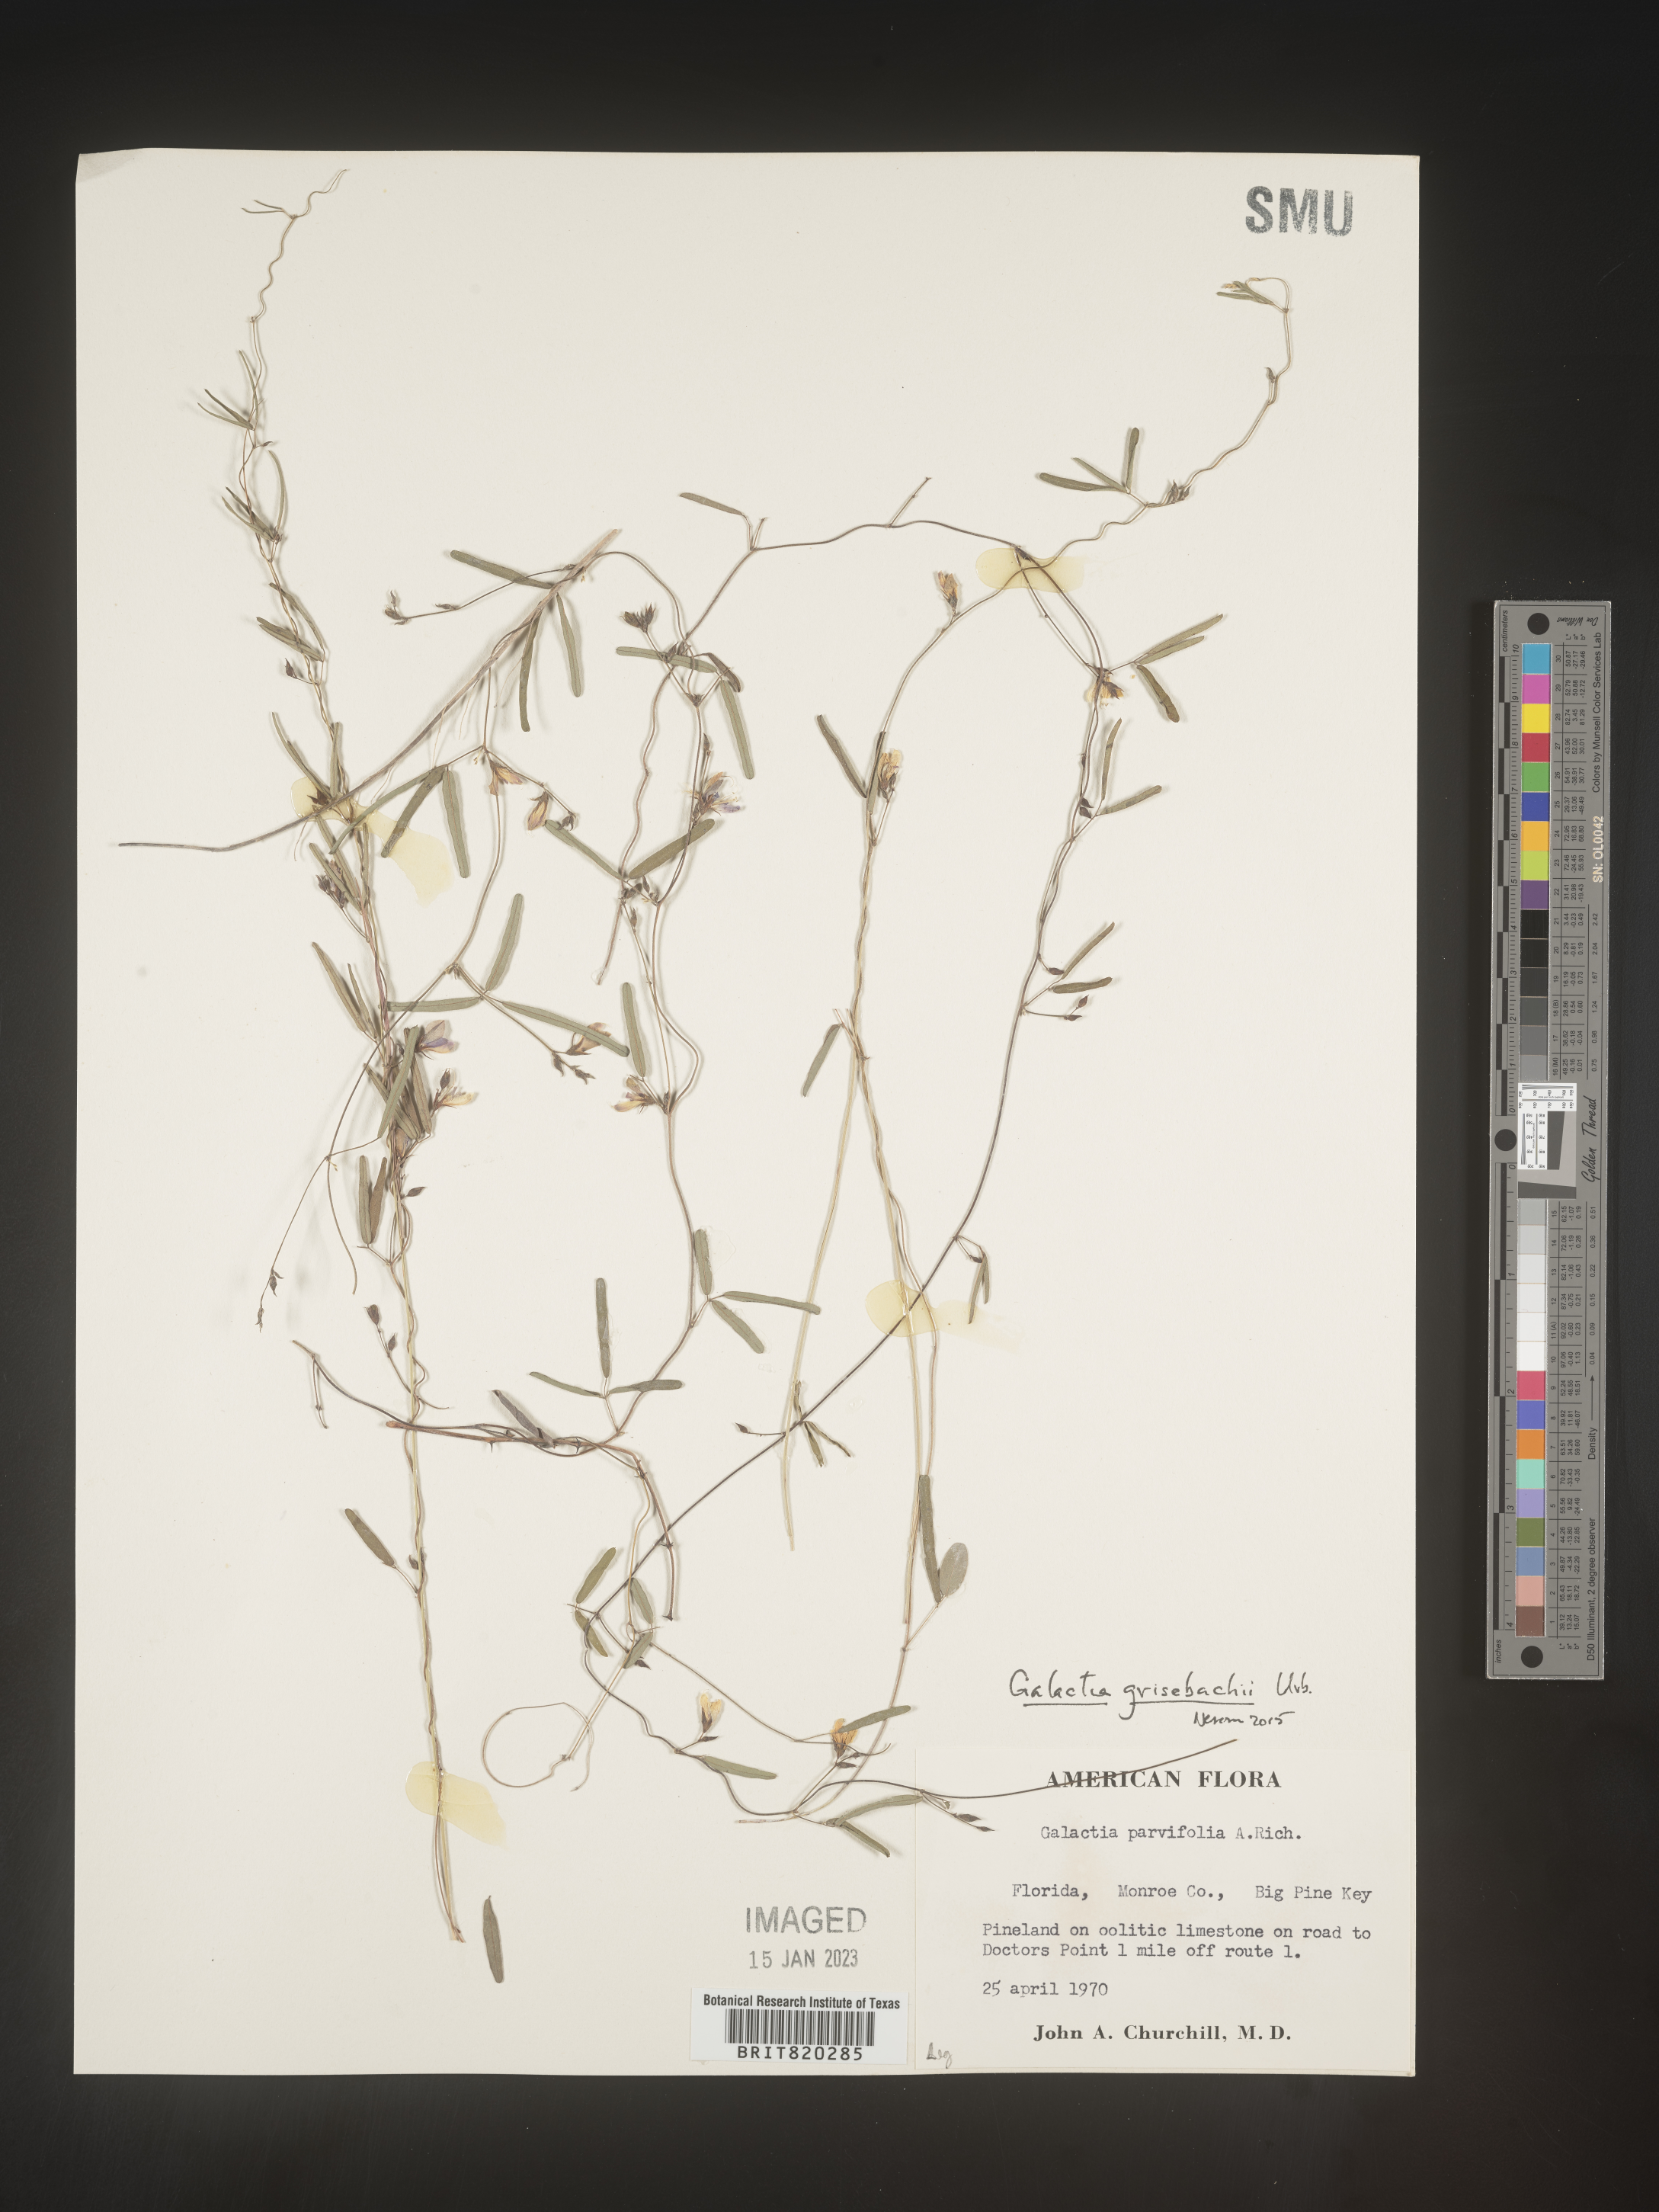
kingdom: Plantae
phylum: Tracheophyta
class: Magnoliopsida
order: Fabales
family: Fabaceae
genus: Galactia
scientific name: Galactia parvifolia
